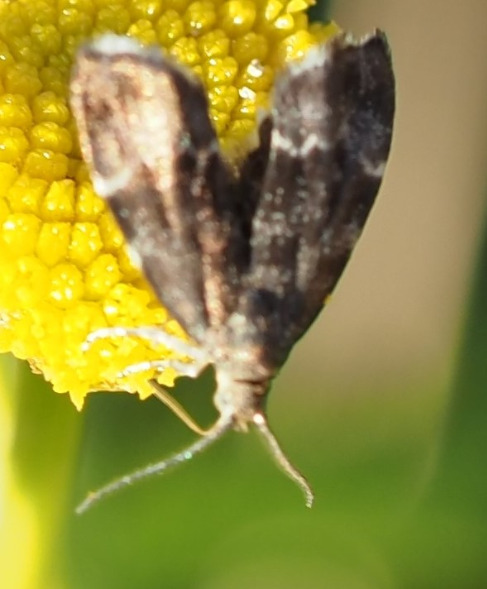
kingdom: Animalia
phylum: Arthropoda
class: Insecta
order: Lepidoptera
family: Choreutidae
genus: Anthophila
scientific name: Anthophila fabriciana
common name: Bredvinget nældevikler
